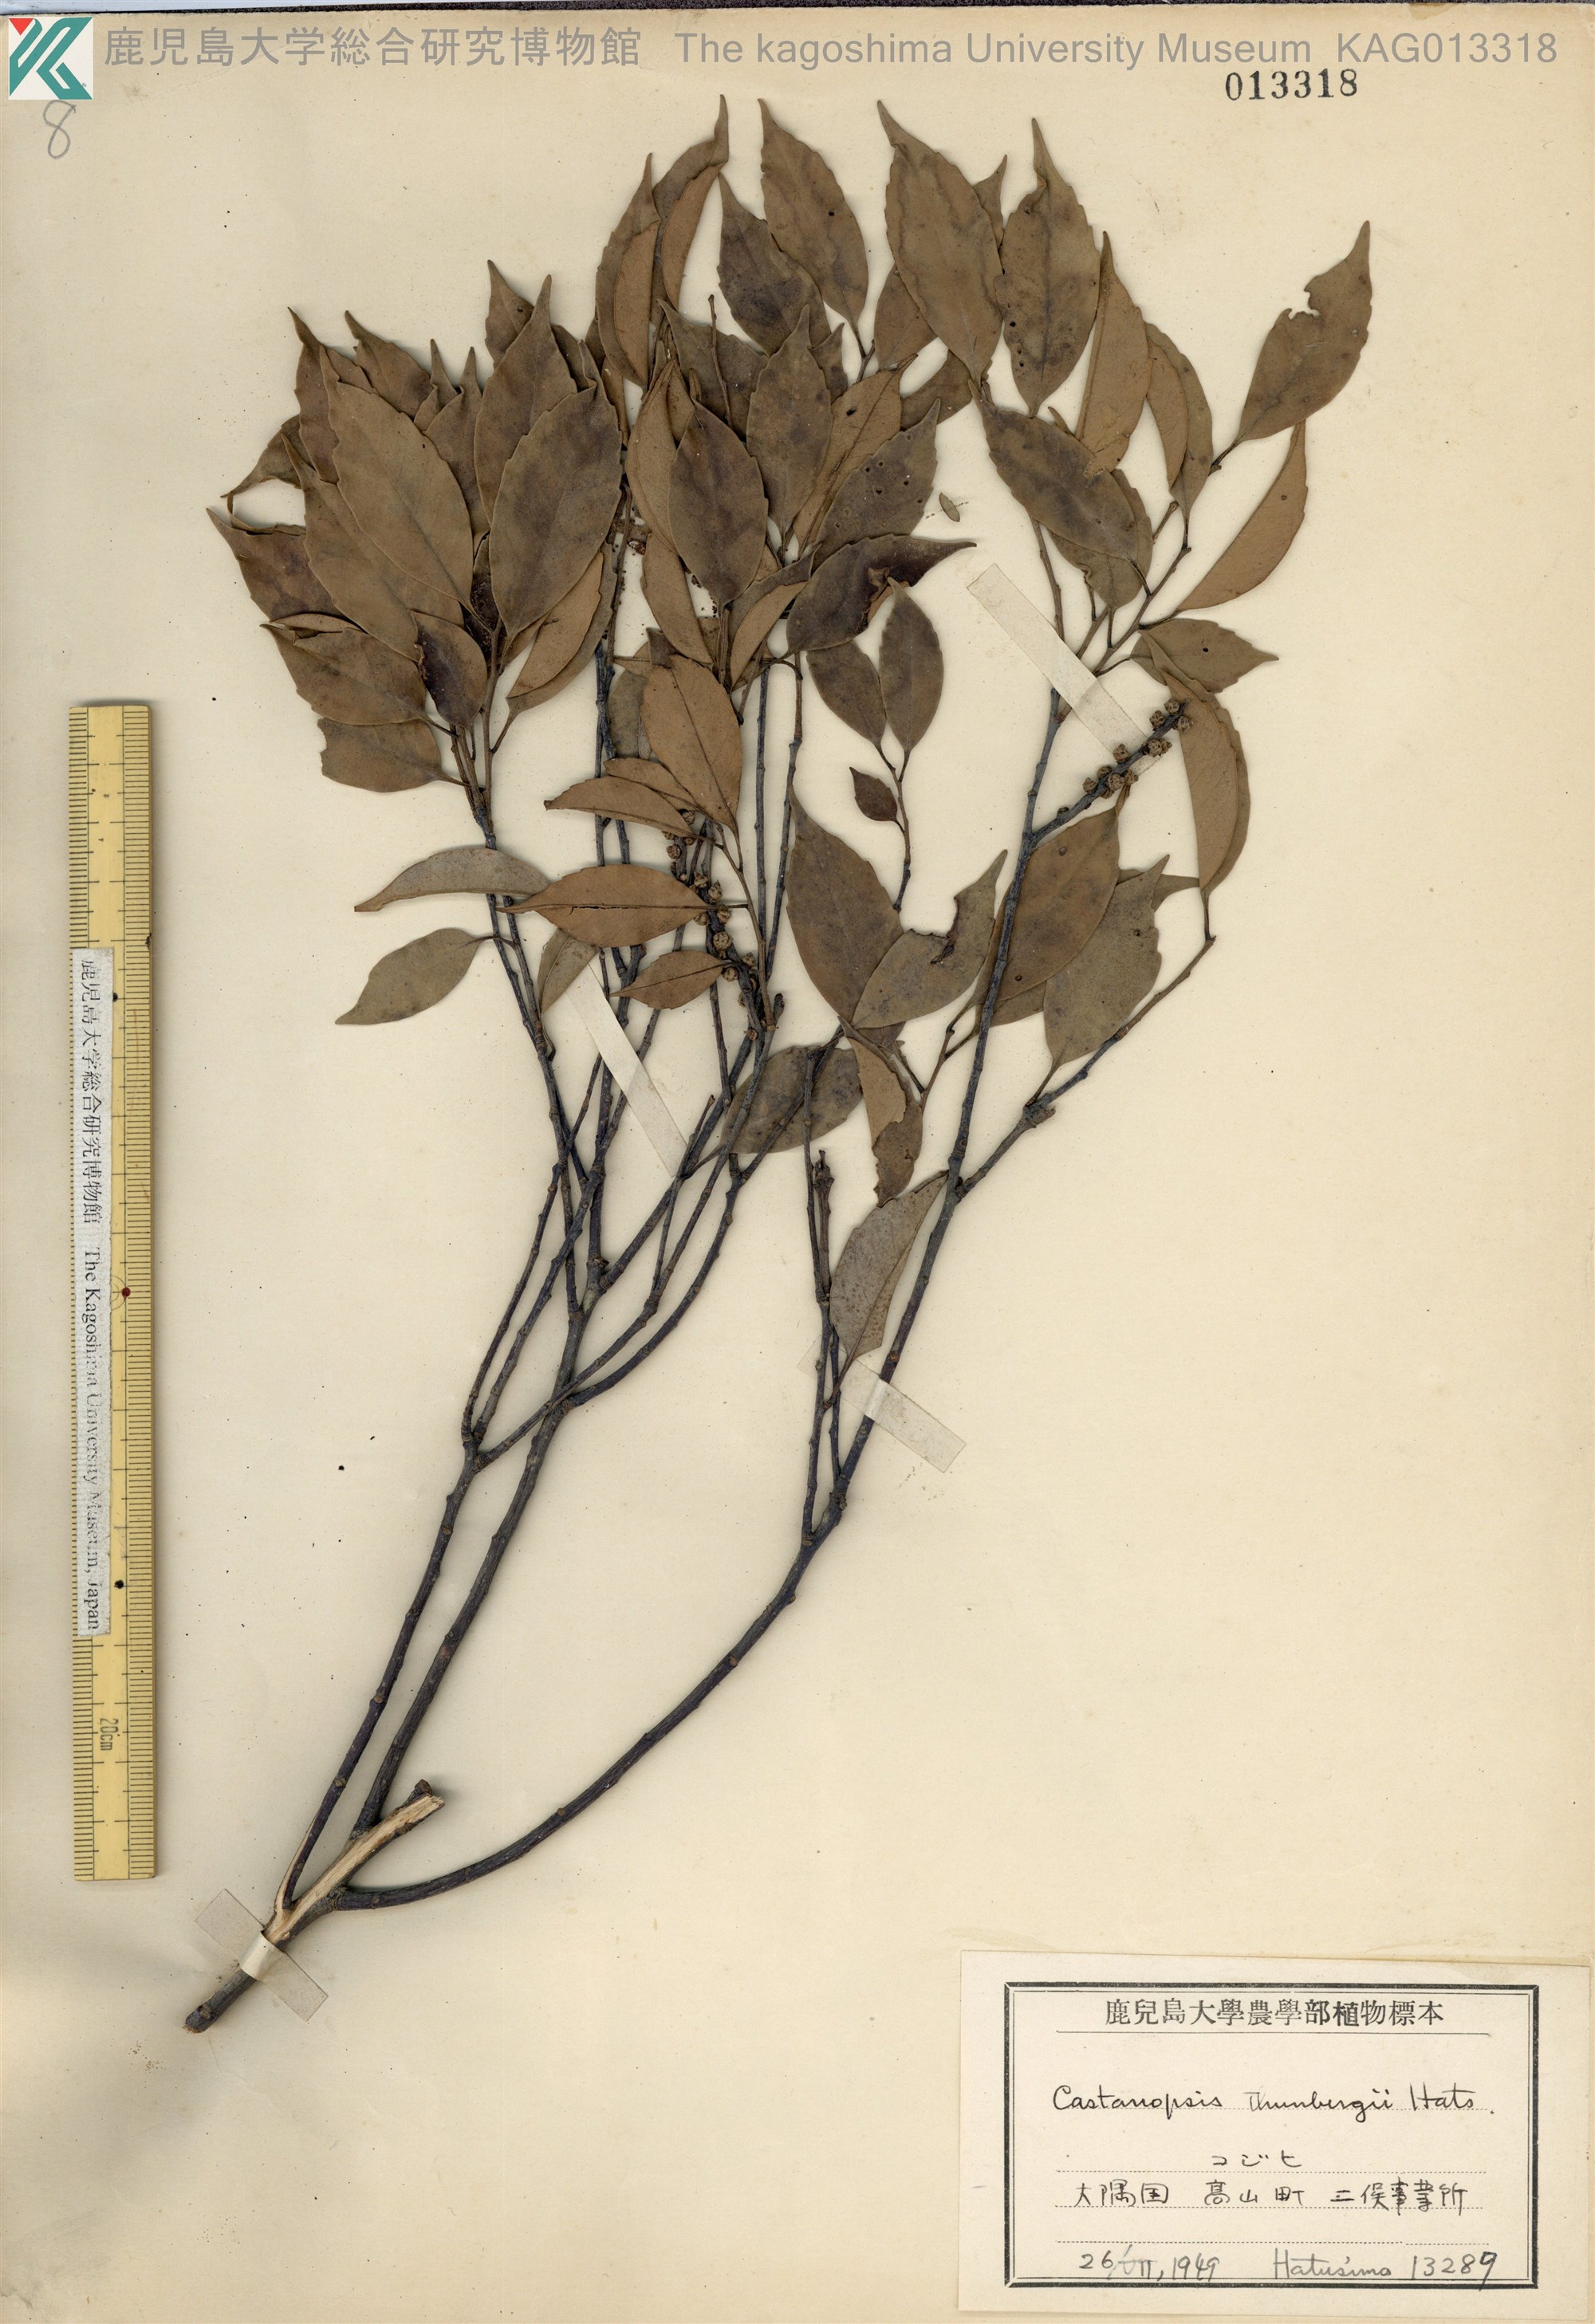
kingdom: Plantae
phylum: Tracheophyta
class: Magnoliopsida
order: Fagales
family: Fagaceae
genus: Castanopsis
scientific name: Castanopsis cuspidata
